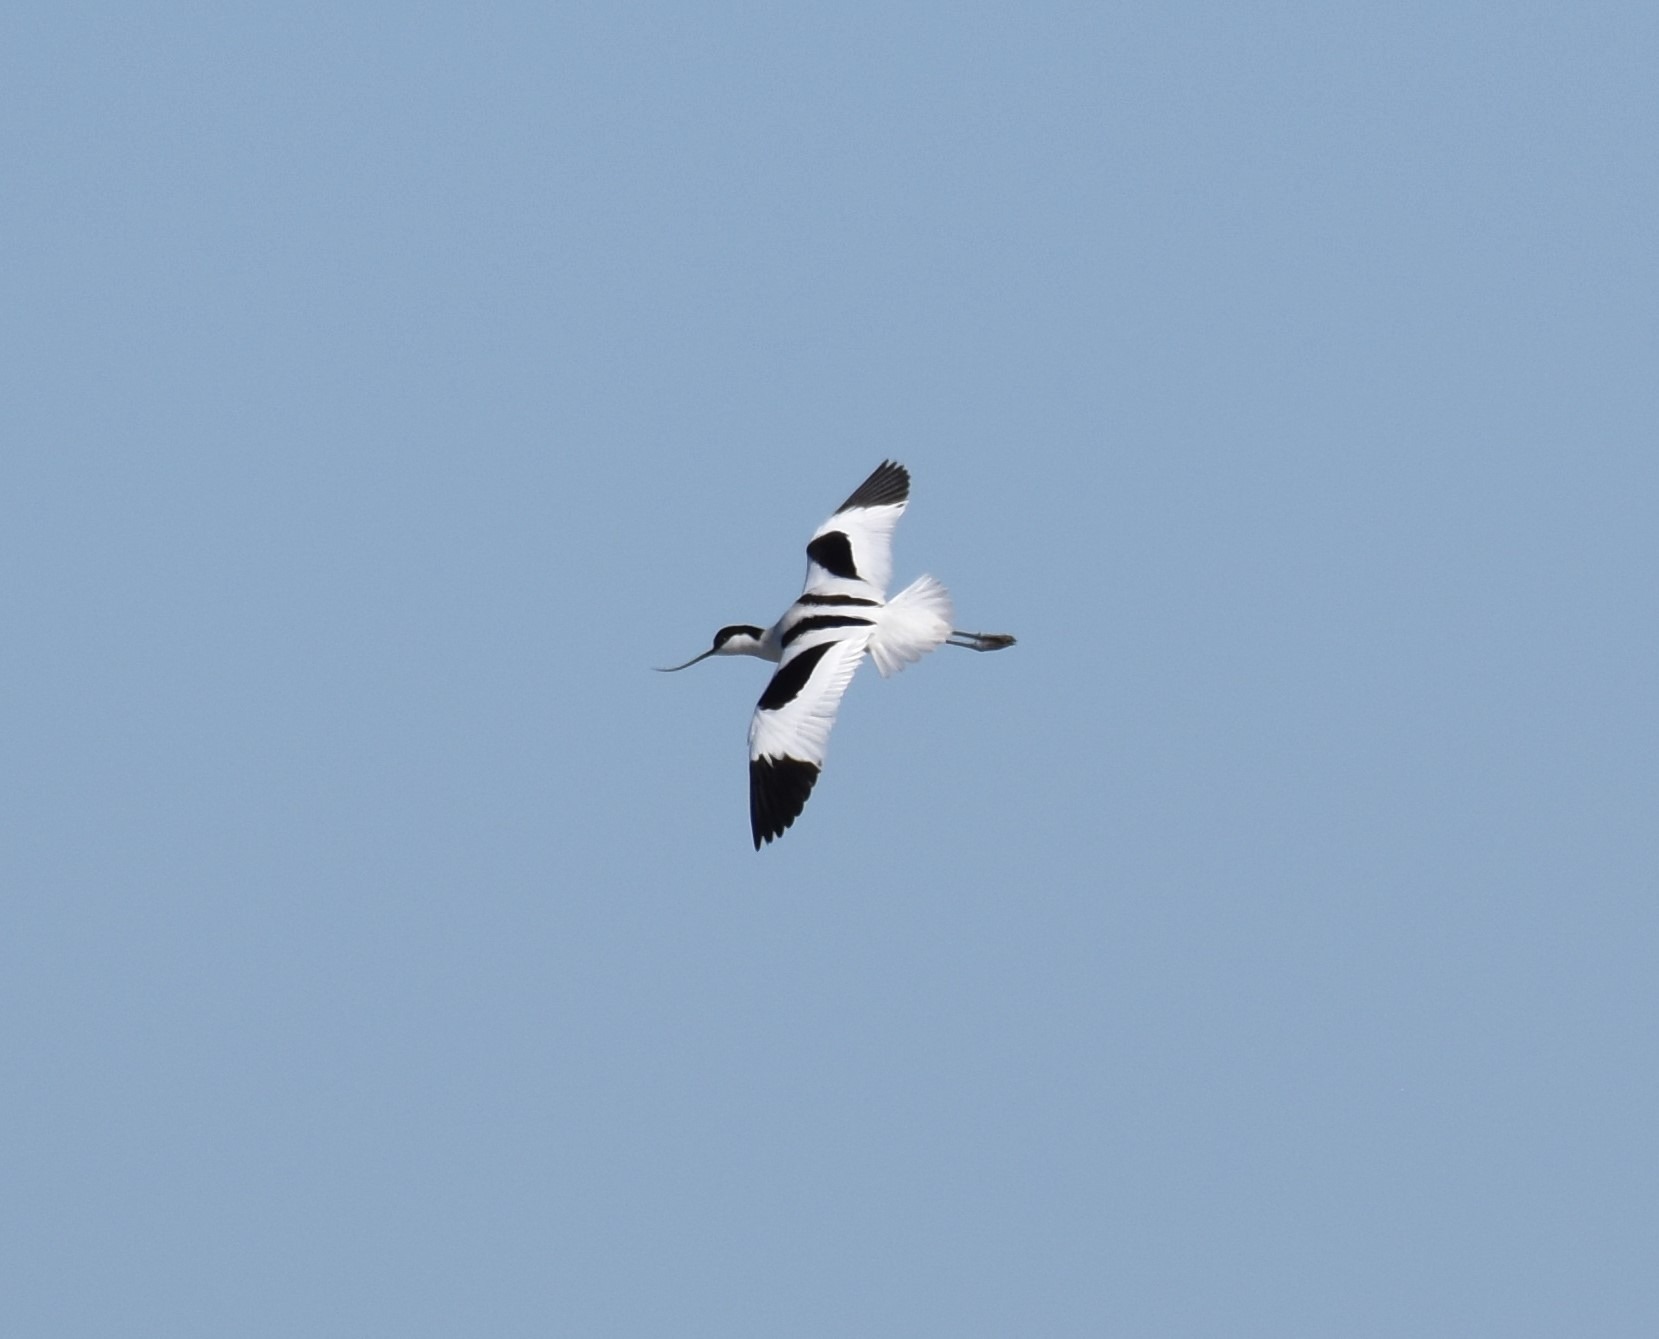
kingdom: Animalia
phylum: Chordata
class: Aves
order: Charadriiformes
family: Recurvirostridae
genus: Recurvirostra
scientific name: Recurvirostra avosetta
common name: Klyde
